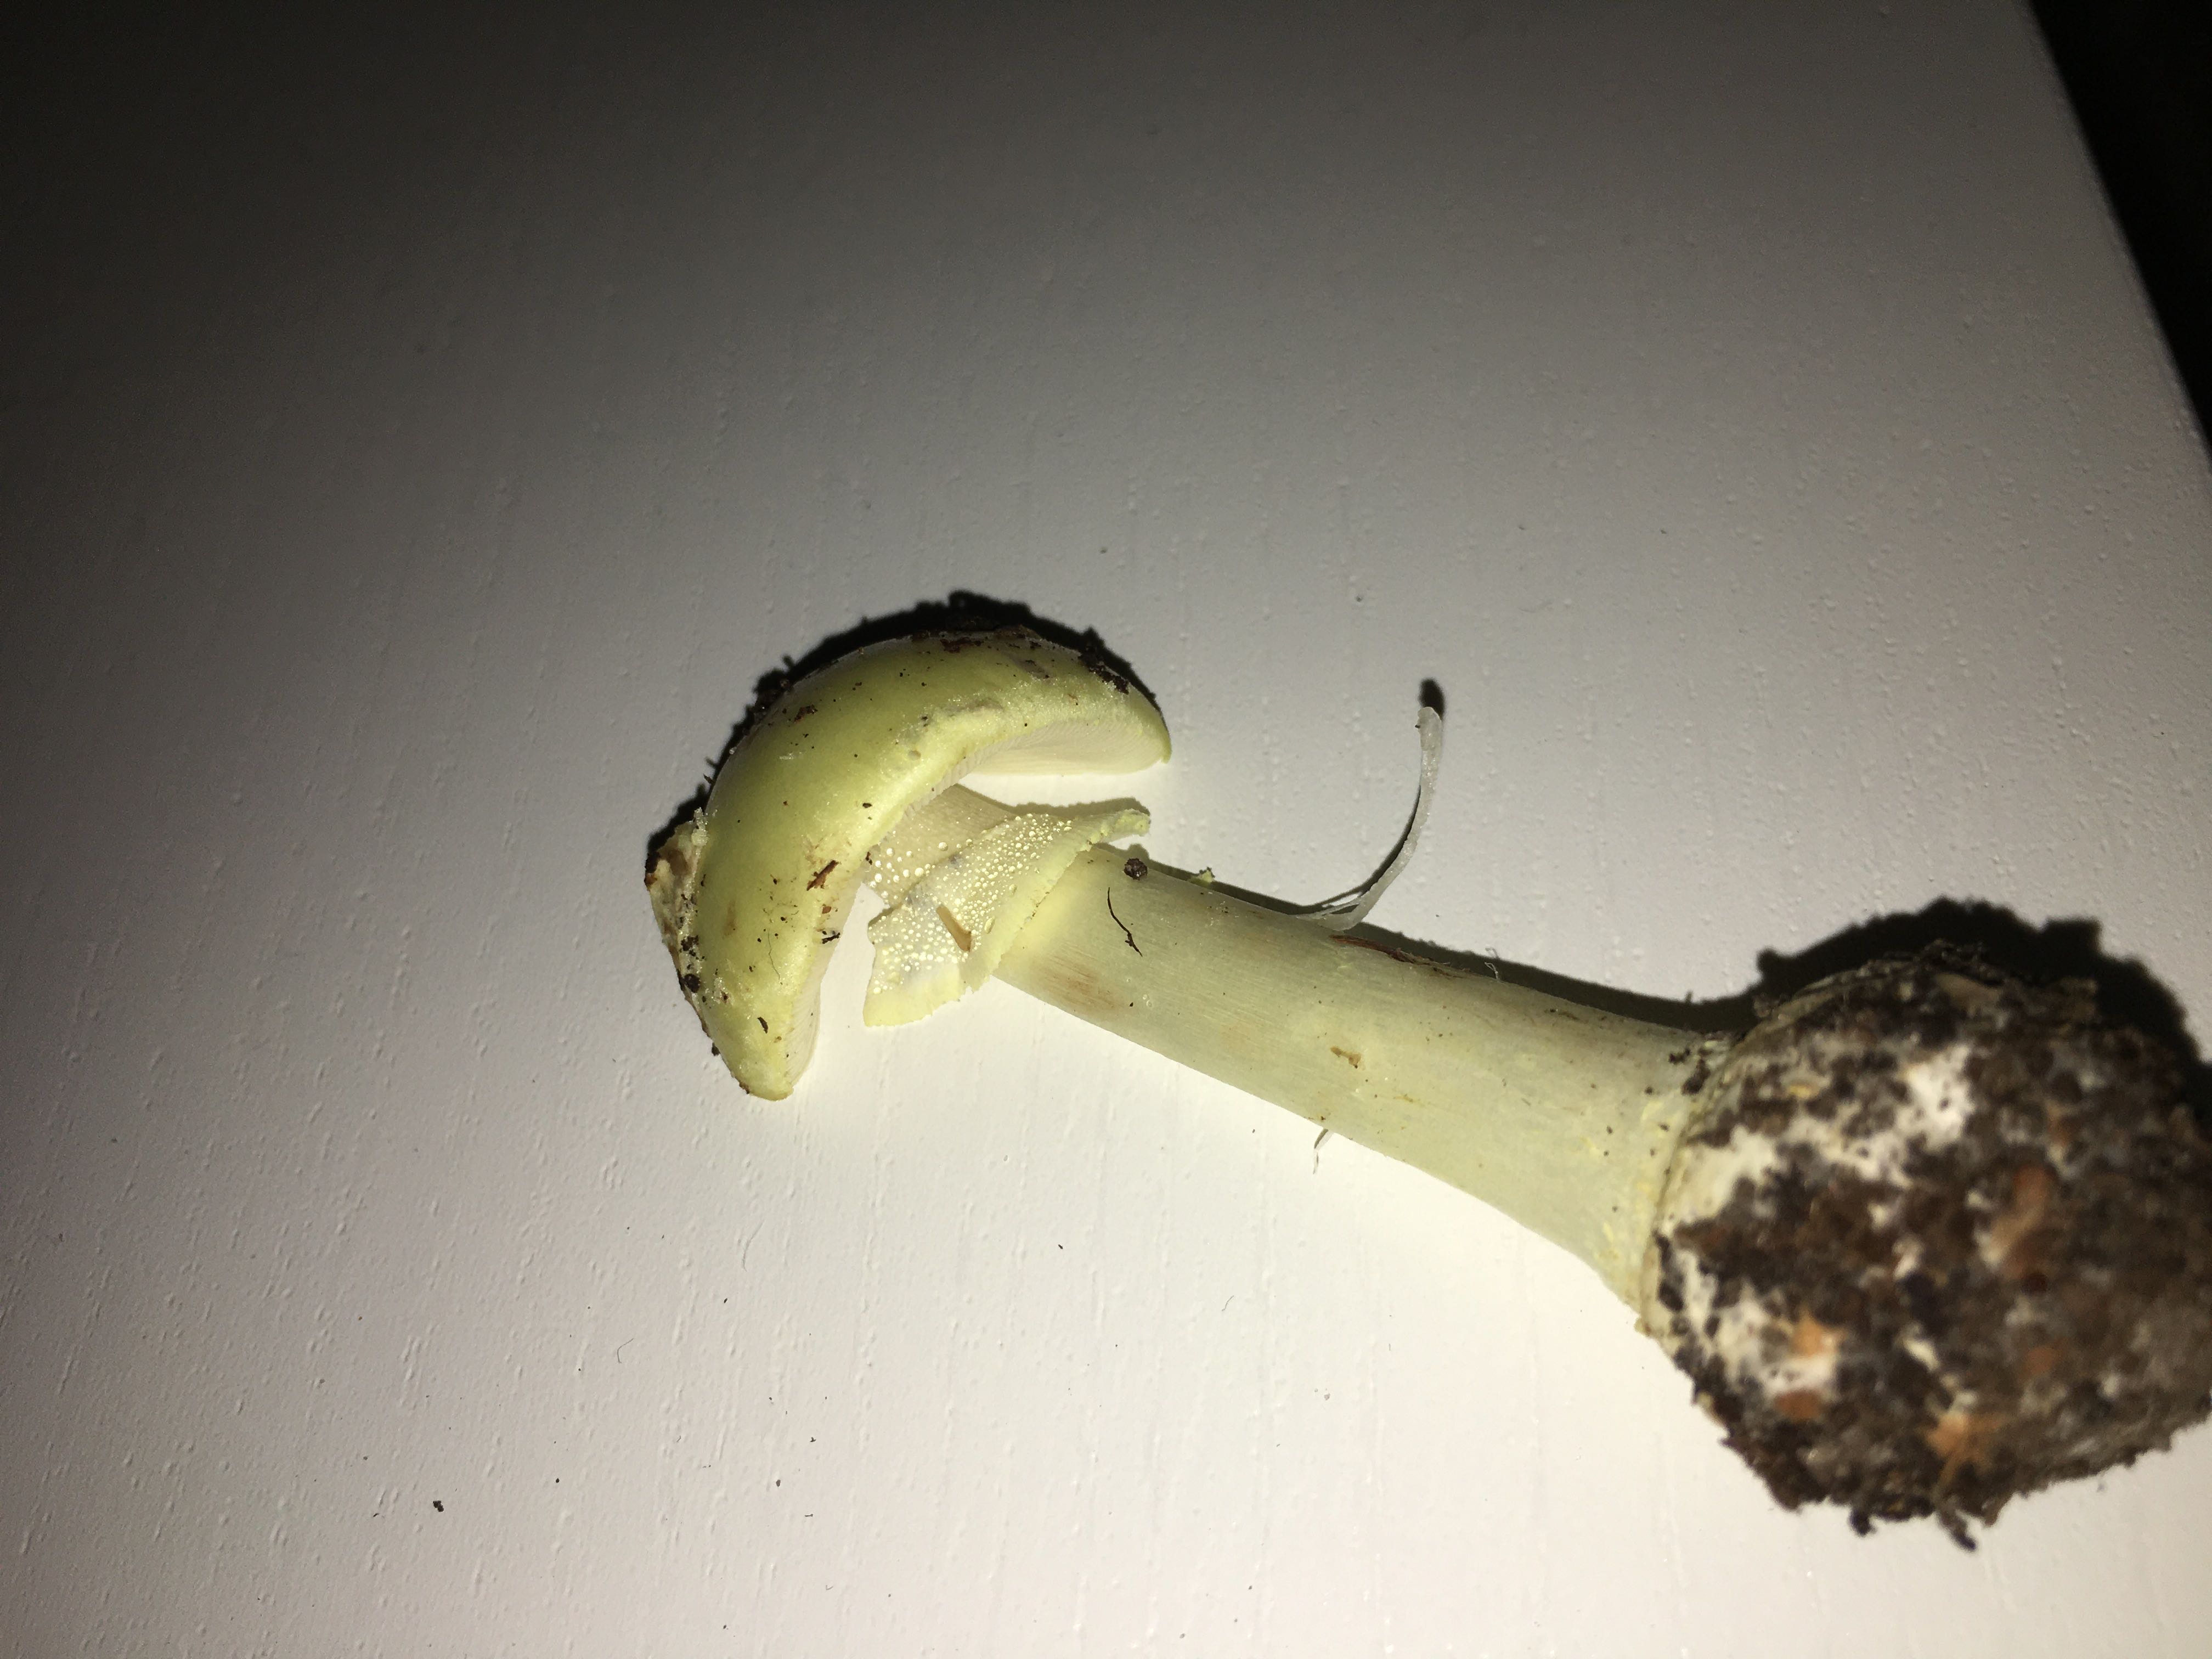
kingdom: Fungi
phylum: Basidiomycota
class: Agaricomycetes
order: Agaricales
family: Amanitaceae
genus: Amanita
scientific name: Amanita citrina
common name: kugleknoldet fluesvamp
